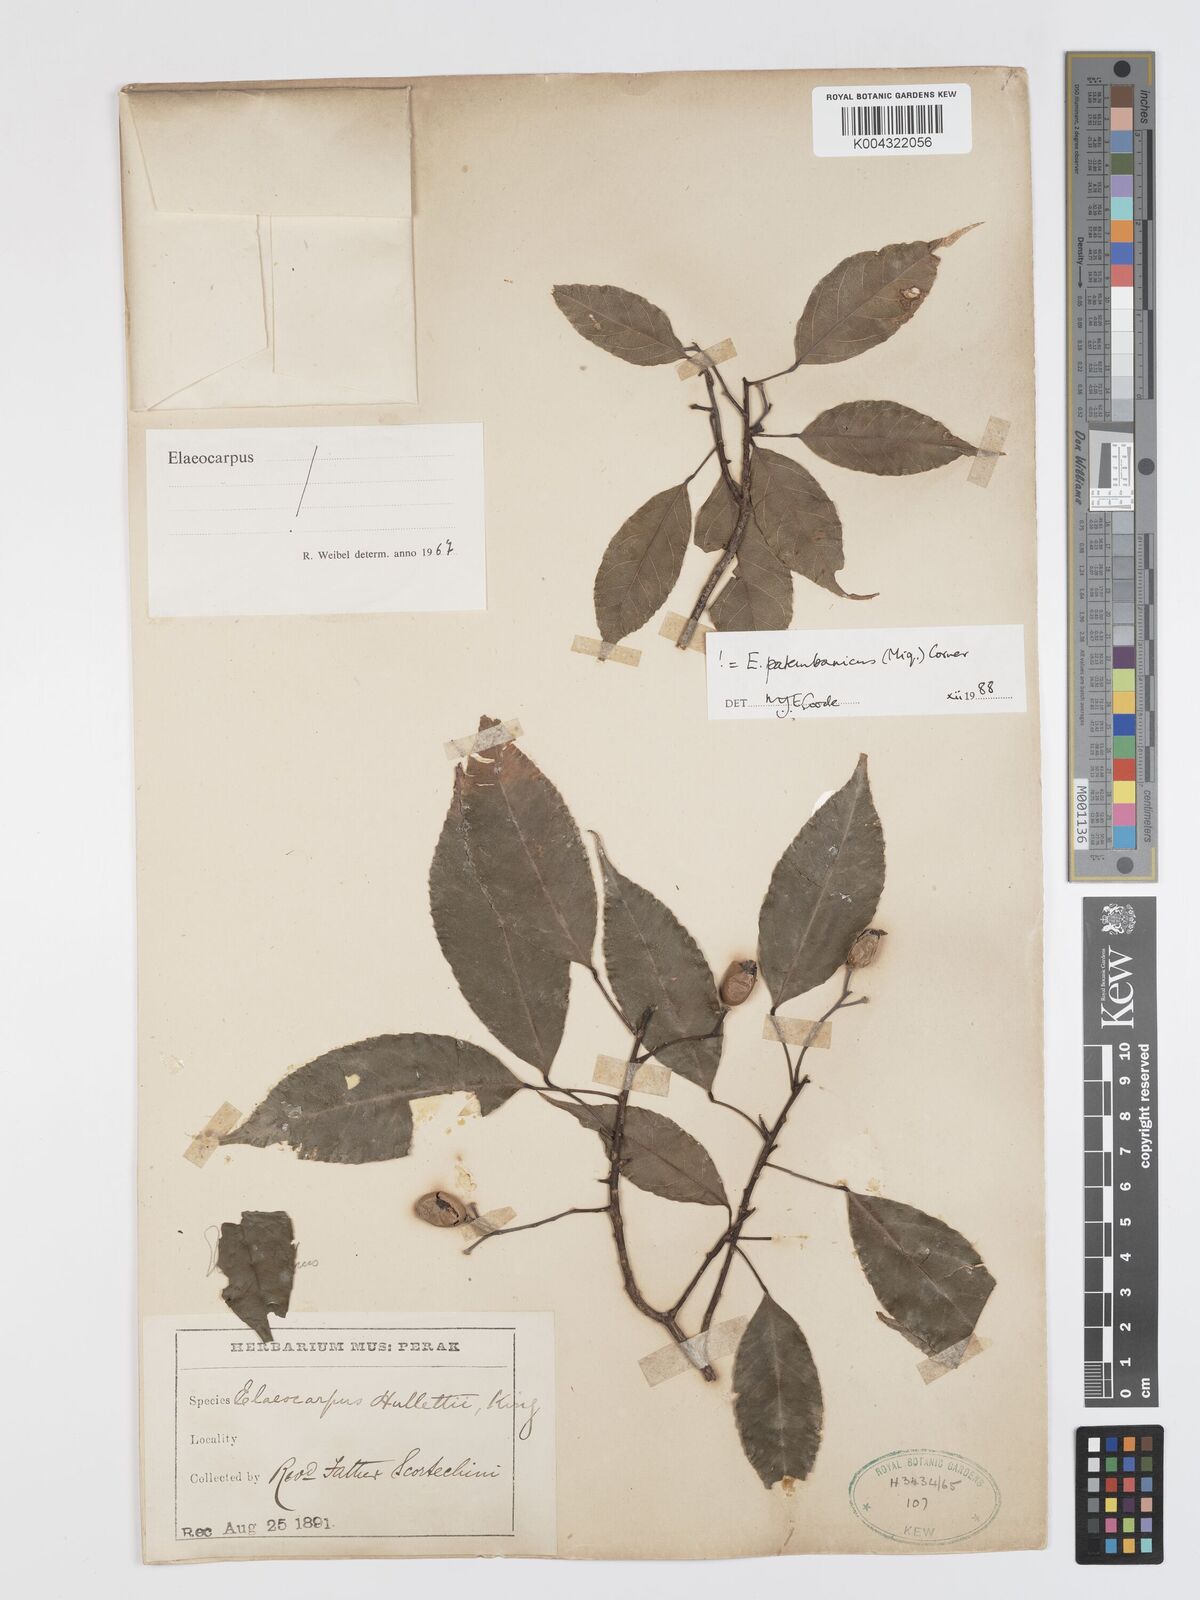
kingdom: Plantae
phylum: Tracheophyta
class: Magnoliopsida
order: Oxalidales
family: Elaeocarpaceae
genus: Elaeocarpus
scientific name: Elaeocarpus palembanicus
